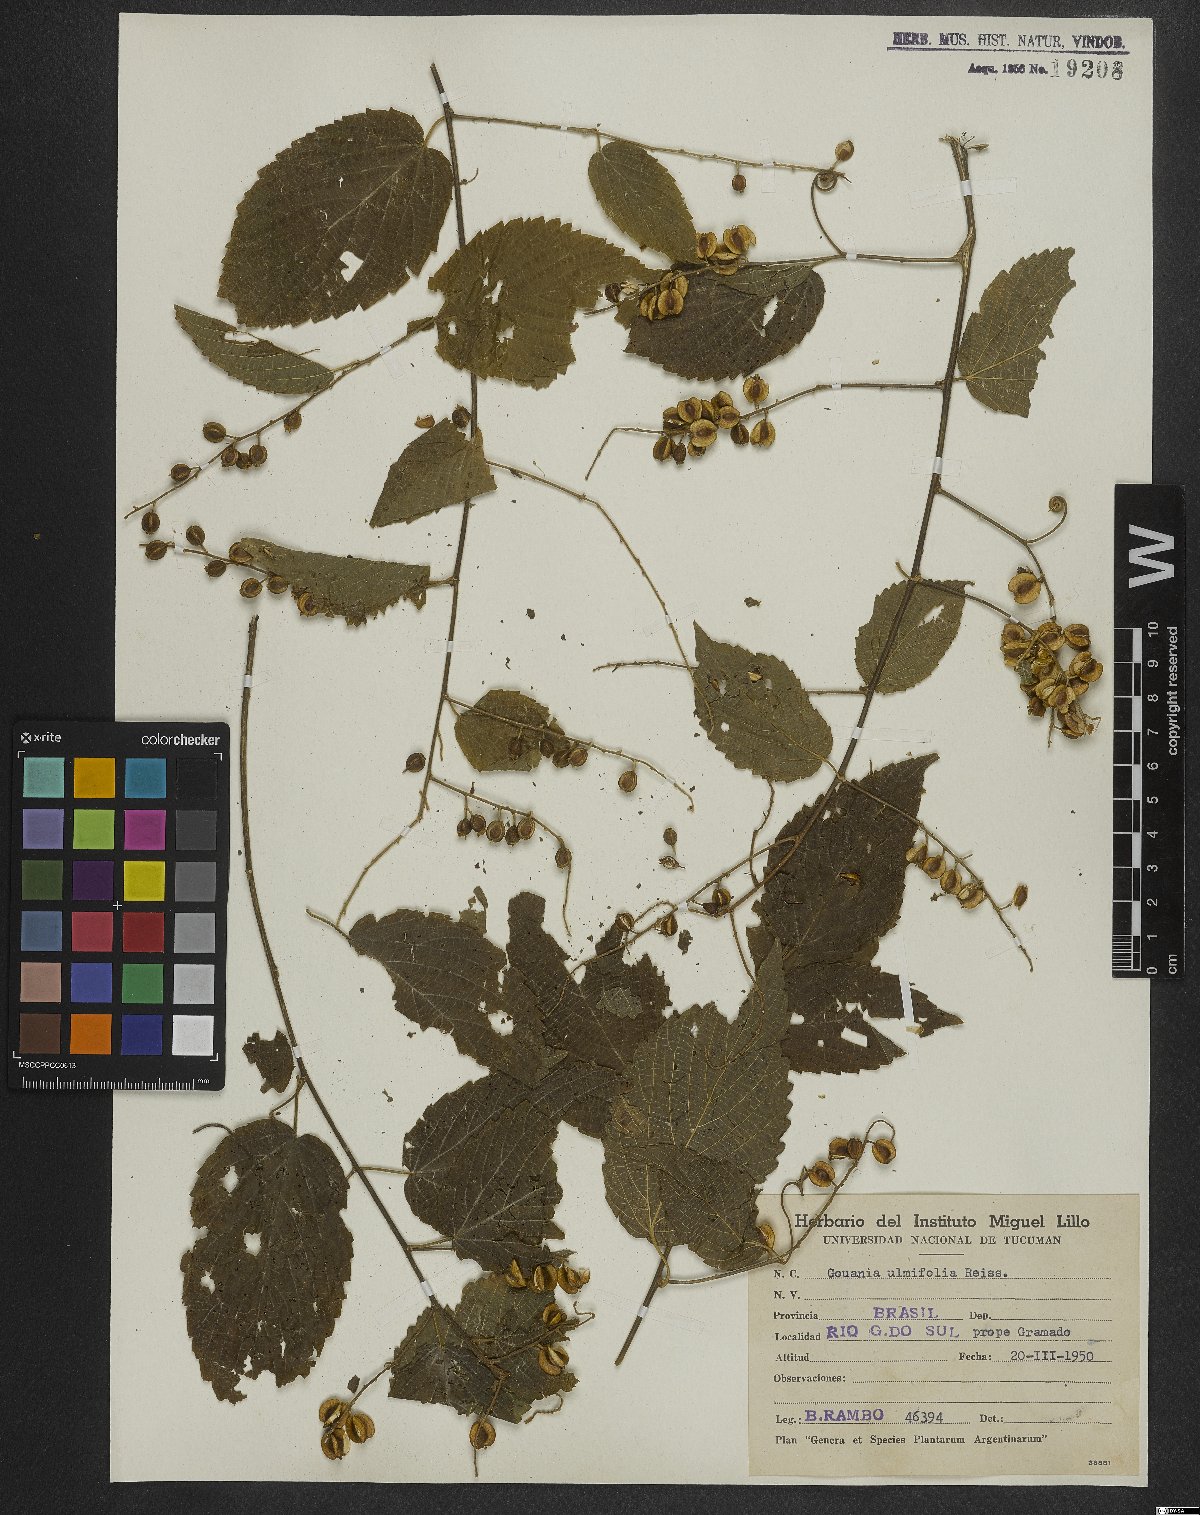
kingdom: Plantae
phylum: Tracheophyta
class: Magnoliopsida
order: Rosales
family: Rhamnaceae
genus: Gouania
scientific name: Gouania ulmifolia
